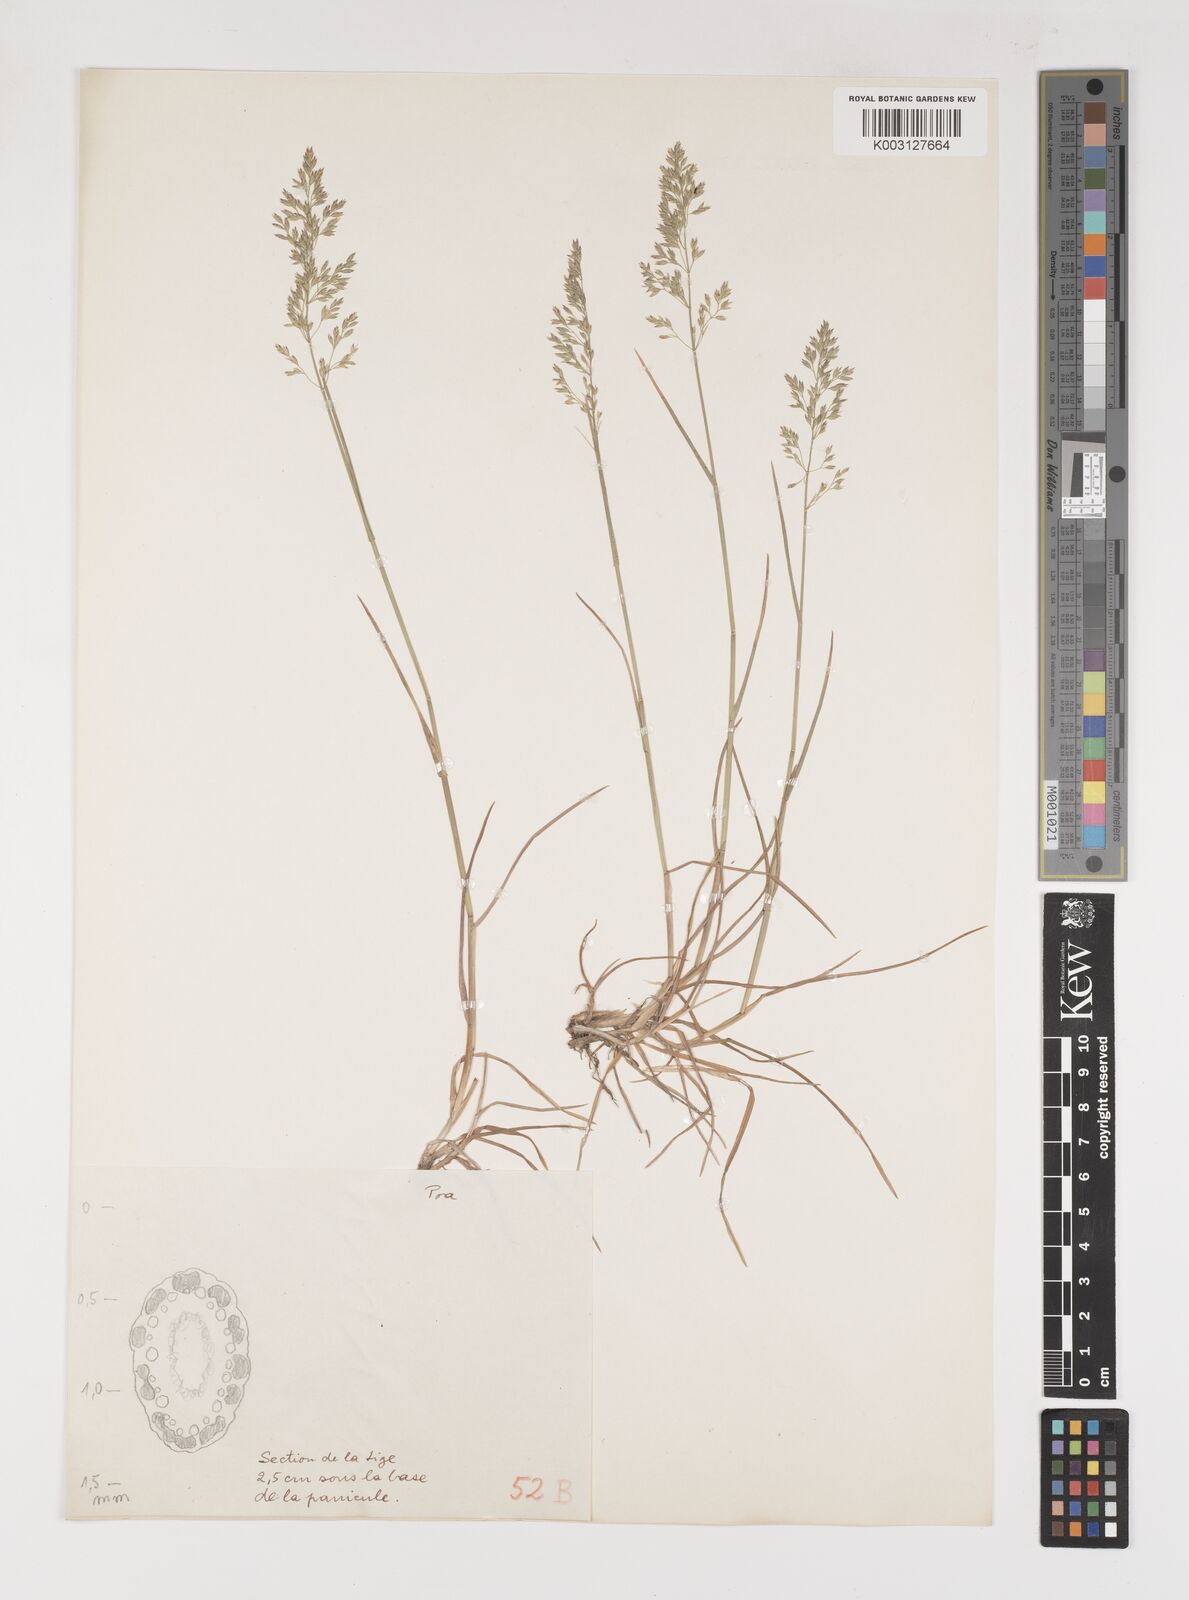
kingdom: Plantae
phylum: Tracheophyta
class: Liliopsida
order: Poales
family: Poaceae
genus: Poa
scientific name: Poa
